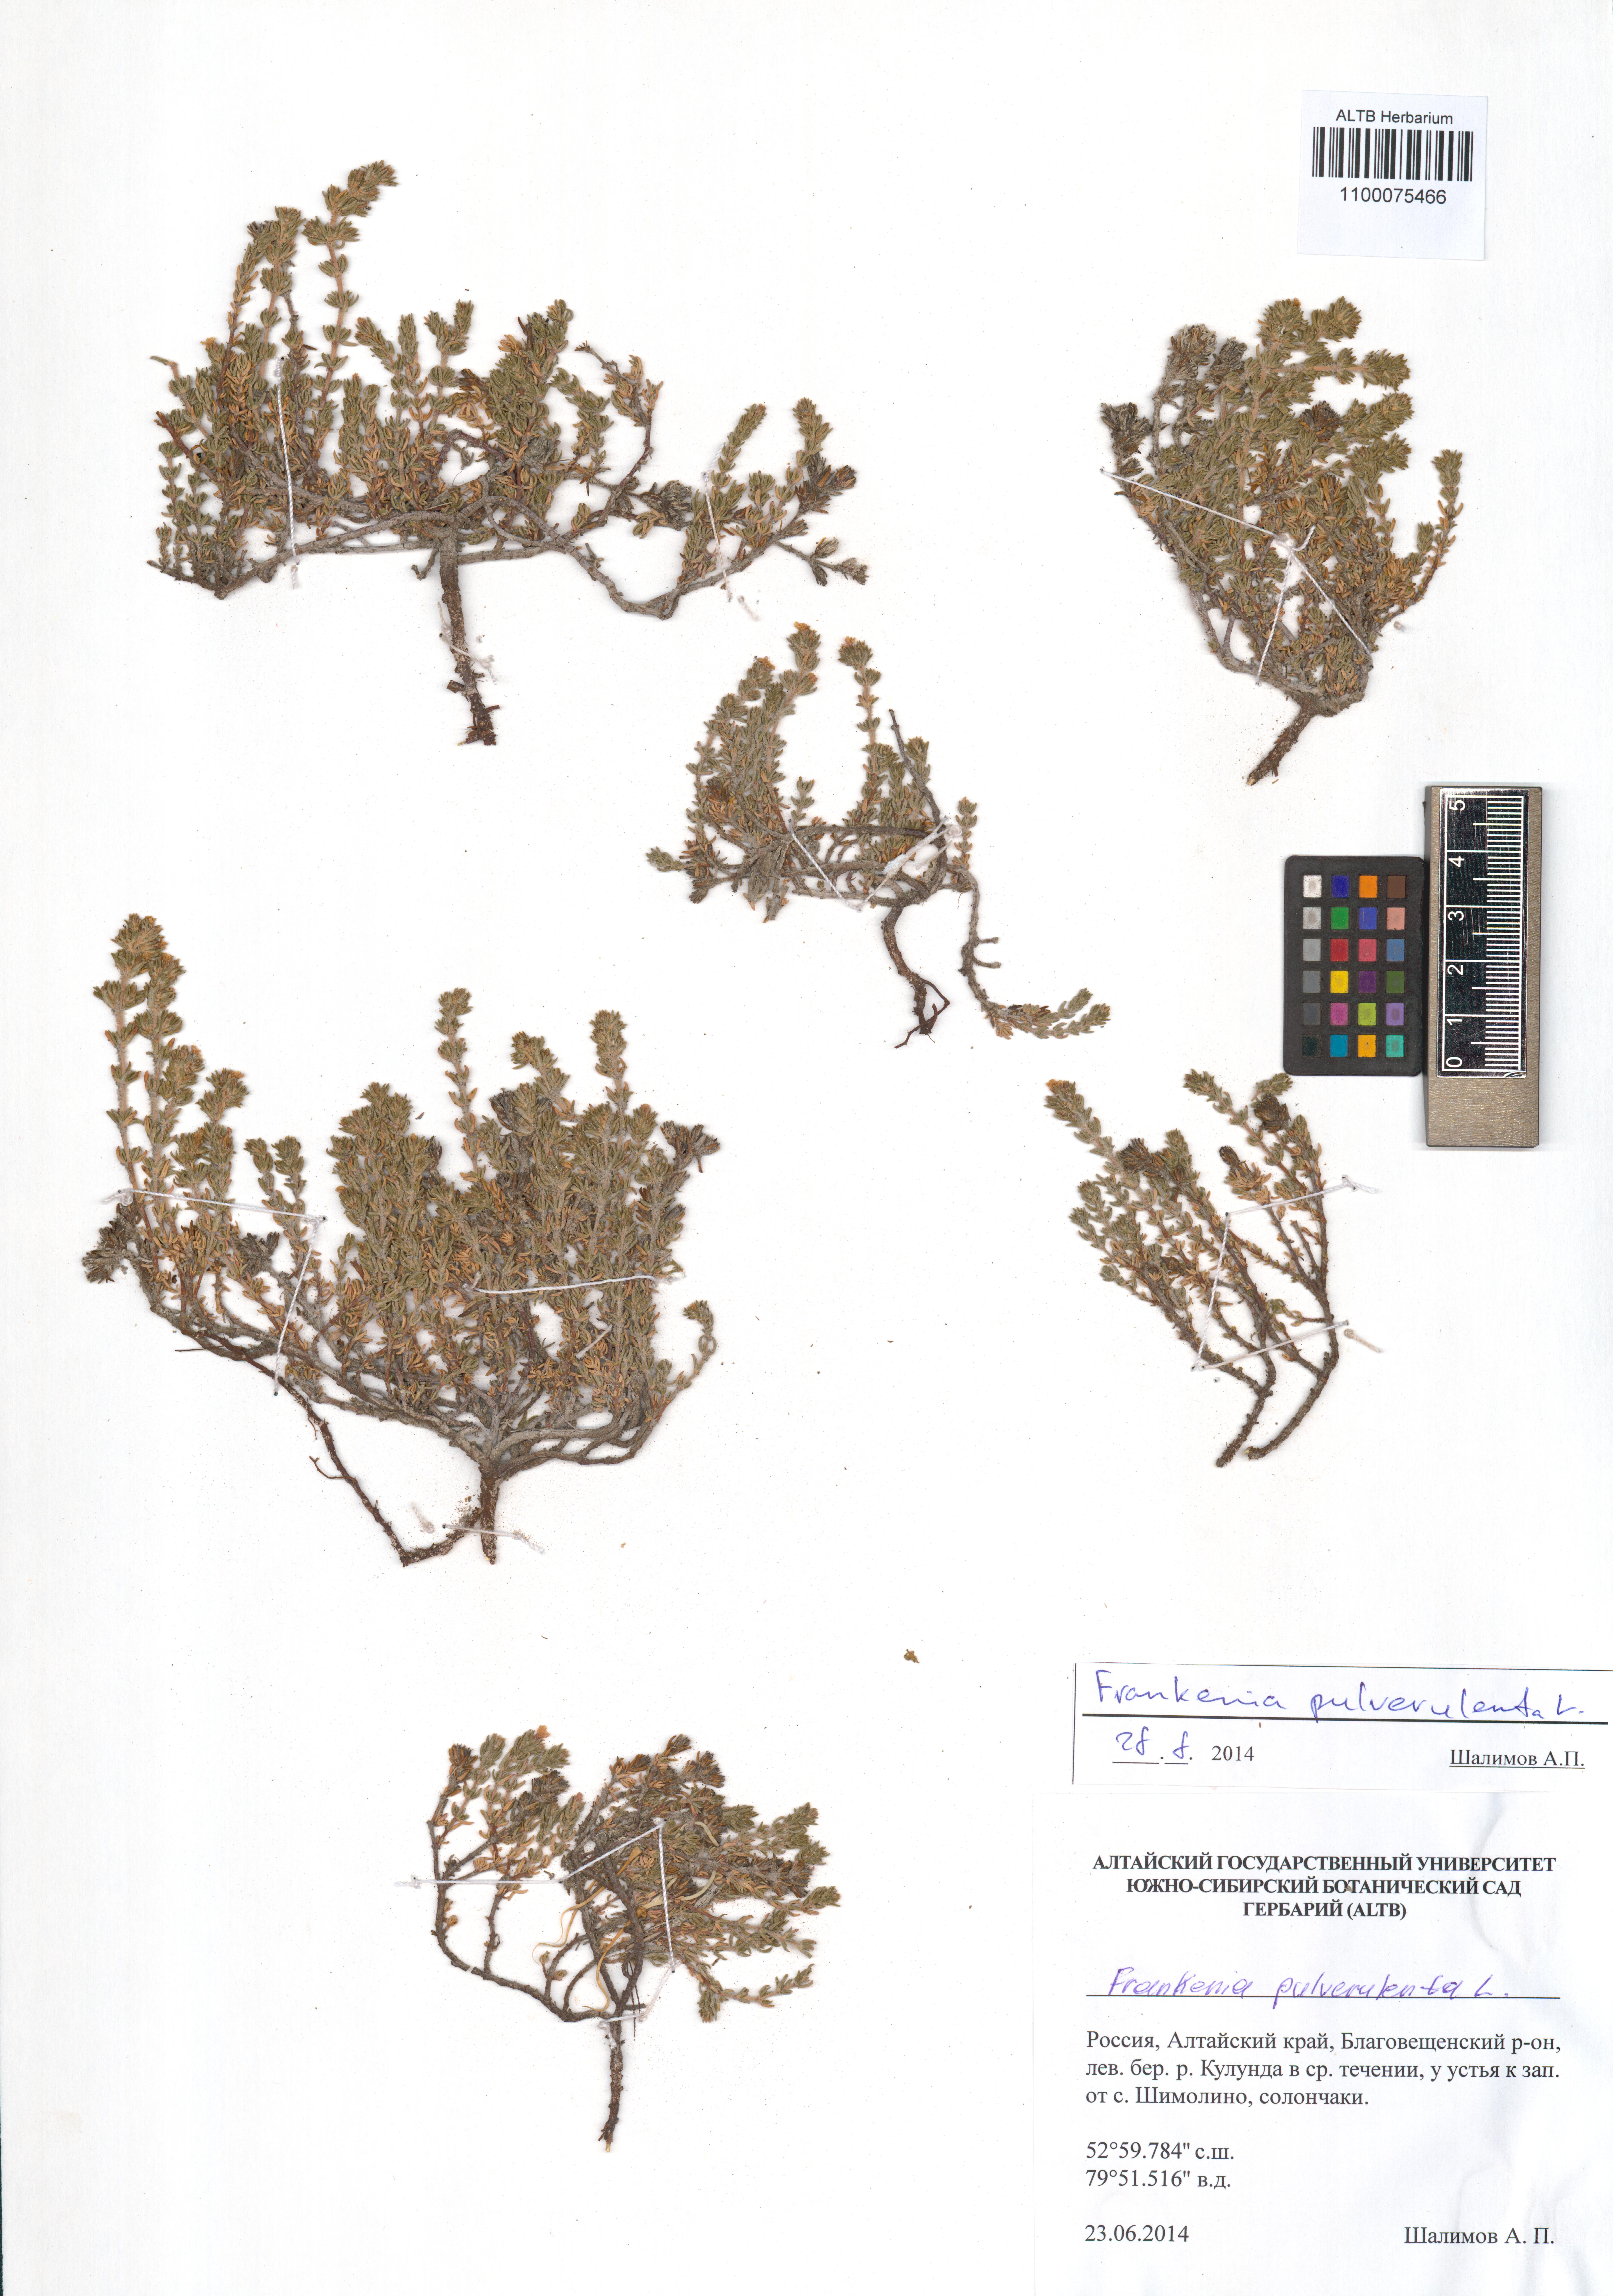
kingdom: Plantae
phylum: Tracheophyta
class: Magnoliopsida
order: Caryophyllales
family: Frankeniaceae
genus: Frankenia
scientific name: Frankenia pulverulenta
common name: European seaheath
